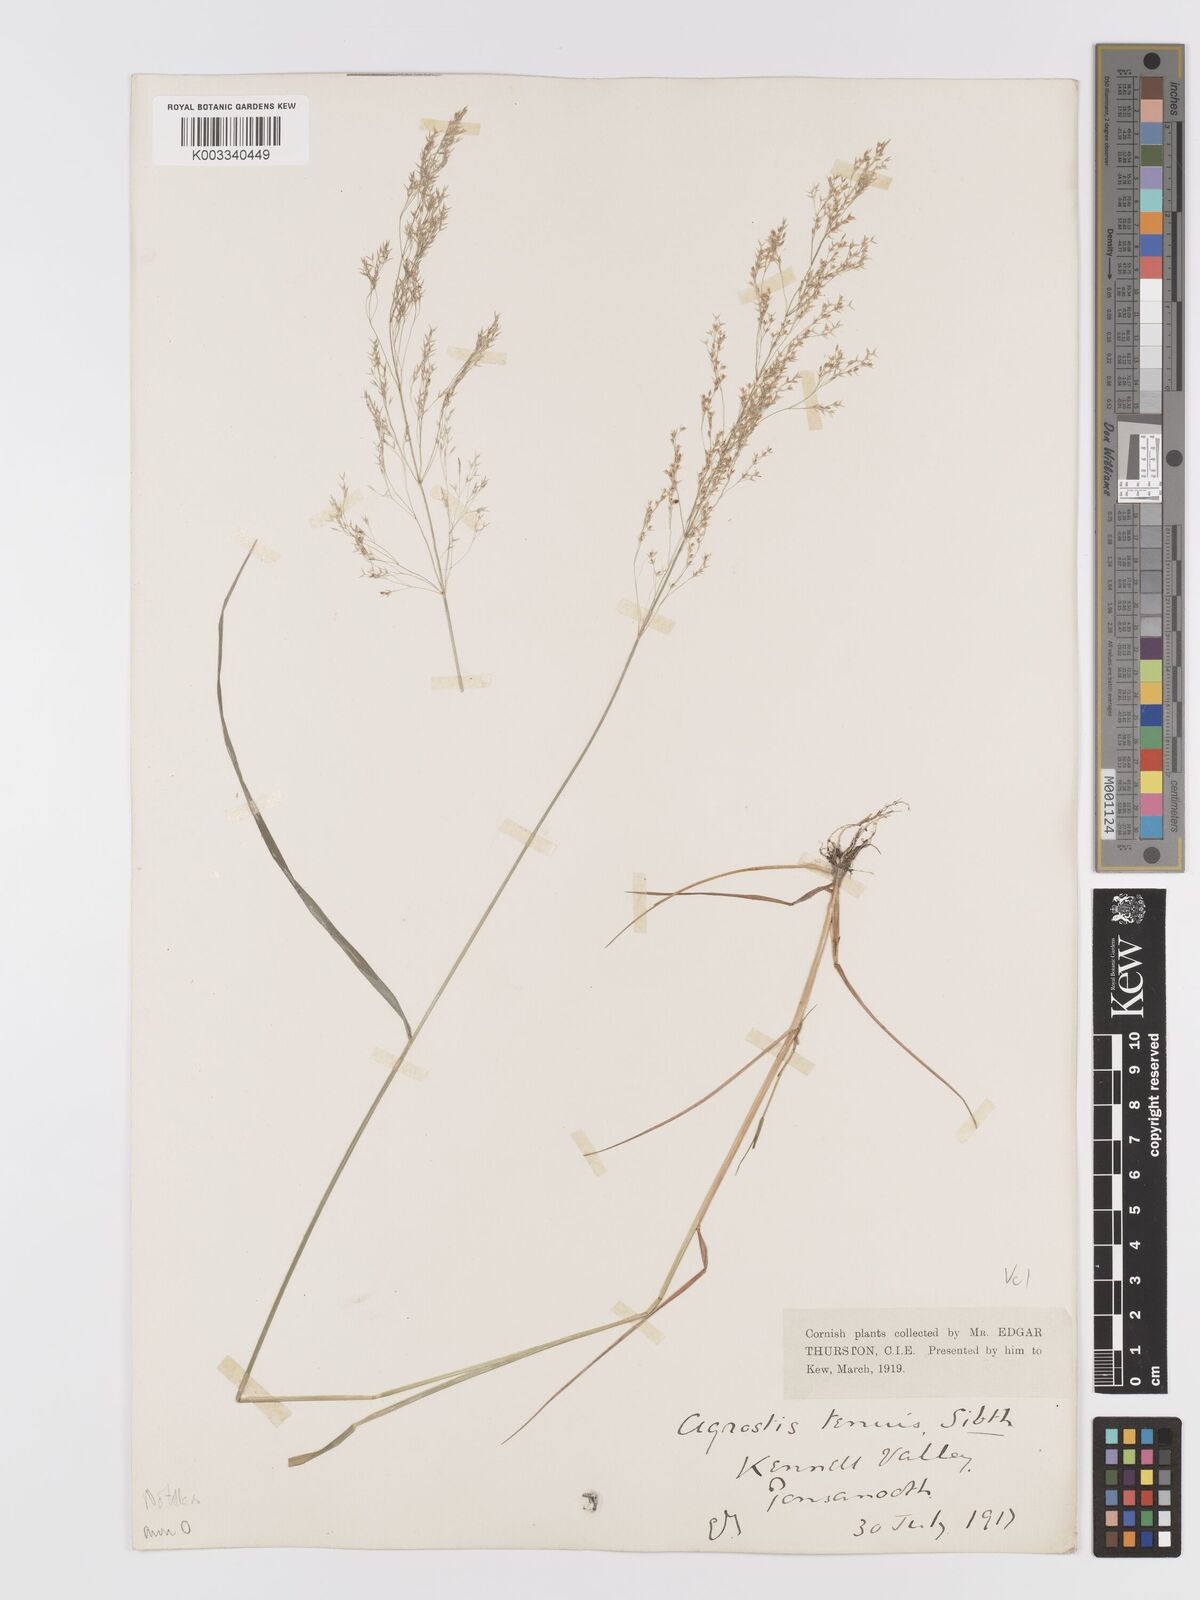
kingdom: Plantae
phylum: Tracheophyta
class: Liliopsida
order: Poales
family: Poaceae
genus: Agrostis
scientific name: Agrostis capillaris
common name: Colonial bentgrass
